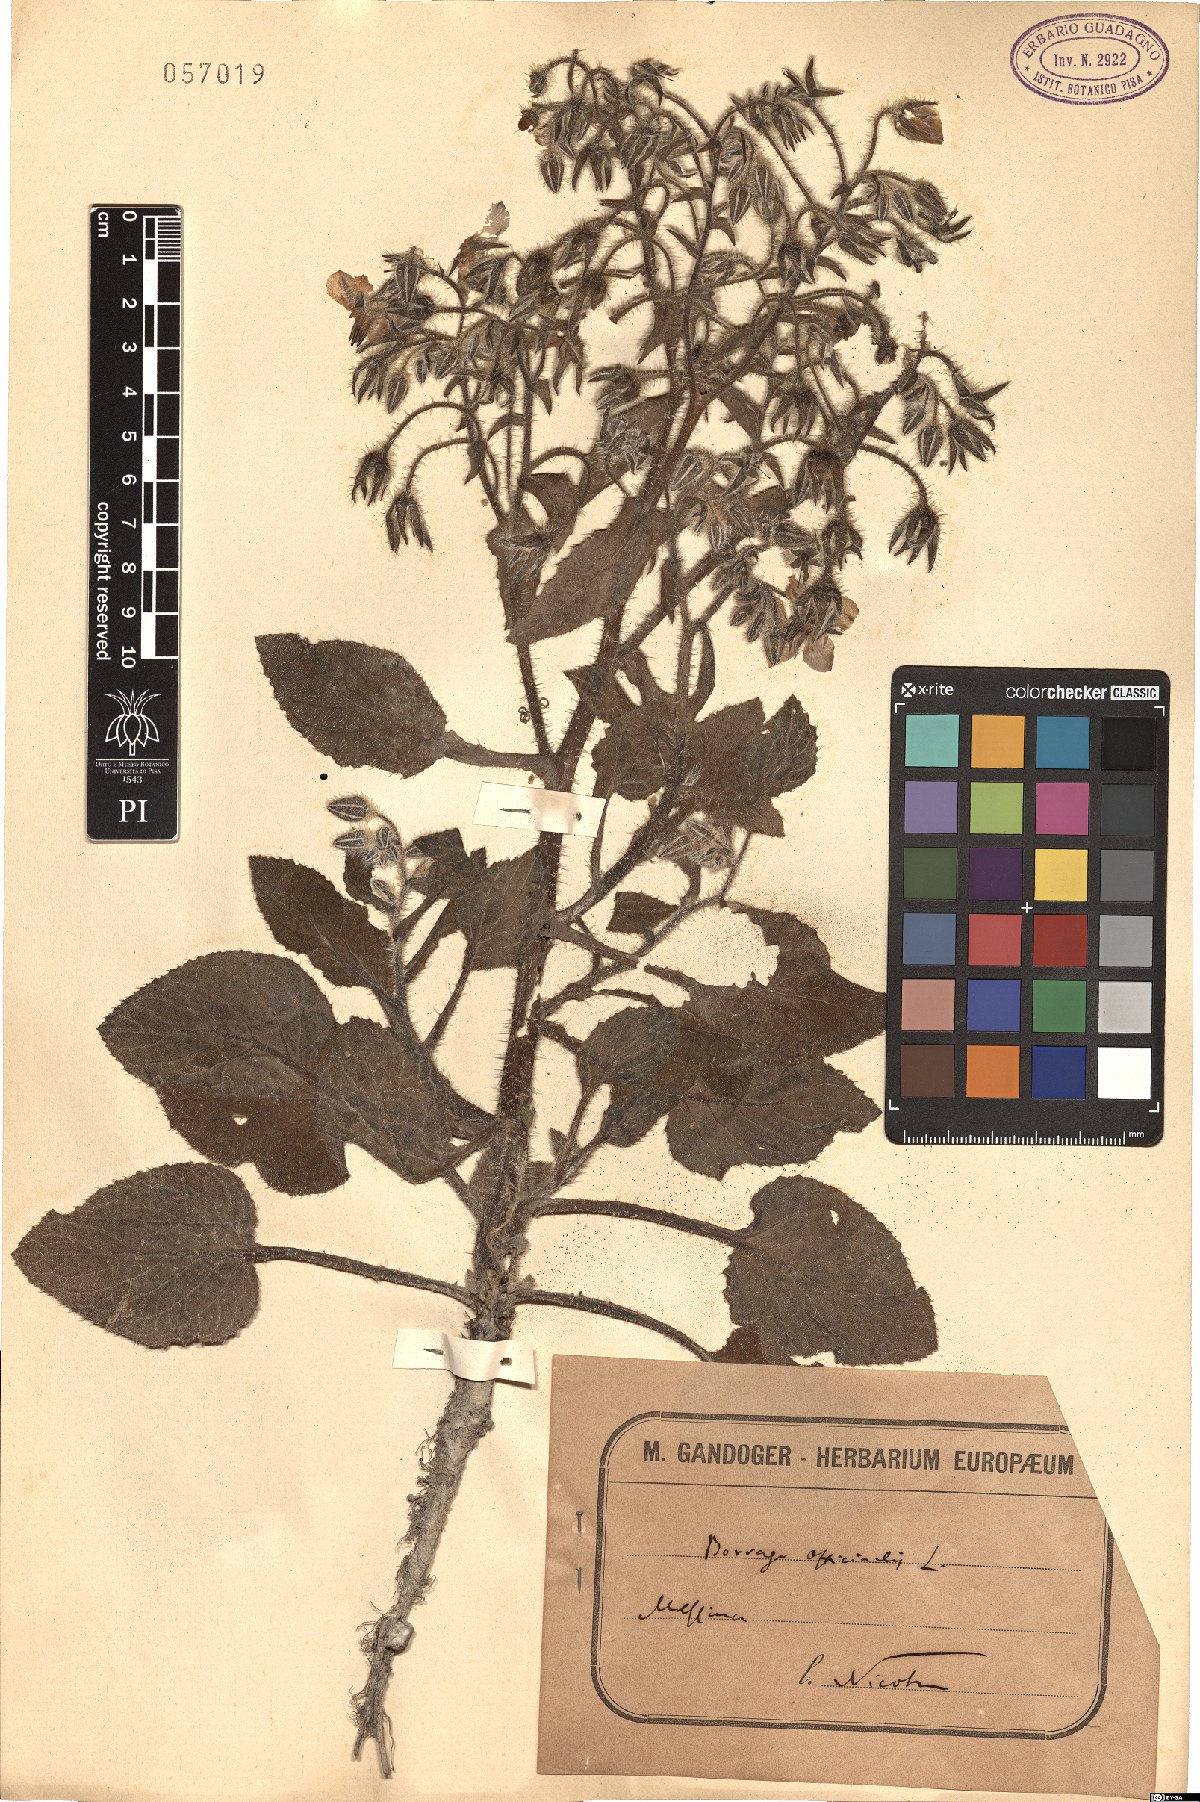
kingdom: Plantae
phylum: Tracheophyta
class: Magnoliopsida
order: Boraginales
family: Boraginaceae
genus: Borago
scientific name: Borago officinalis
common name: Borage
